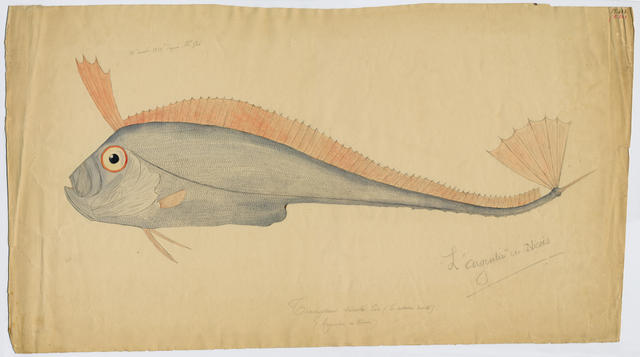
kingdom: Animalia
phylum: Chordata
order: Lampriformes
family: Trachipteridae
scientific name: Trachipteridae
